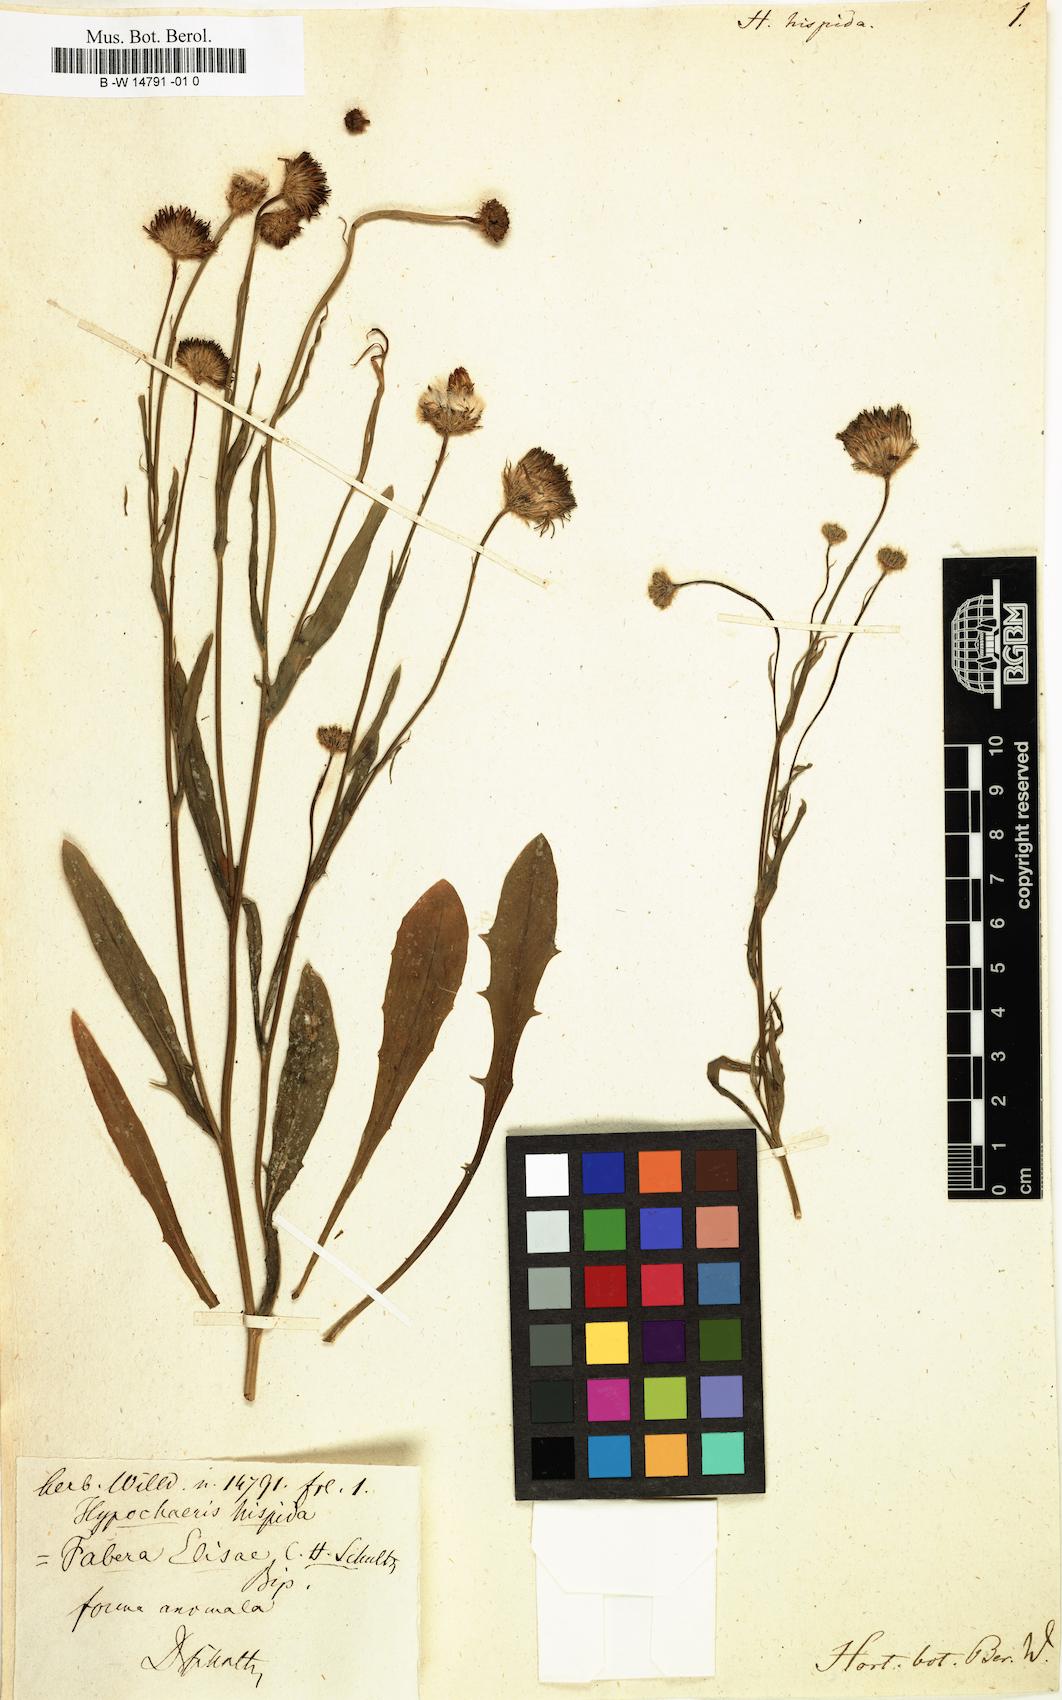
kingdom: Plantae
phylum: Tracheophyta
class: Magnoliopsida
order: Asterales
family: Asteraceae
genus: Hypochaeris
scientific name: Hypochaeris
